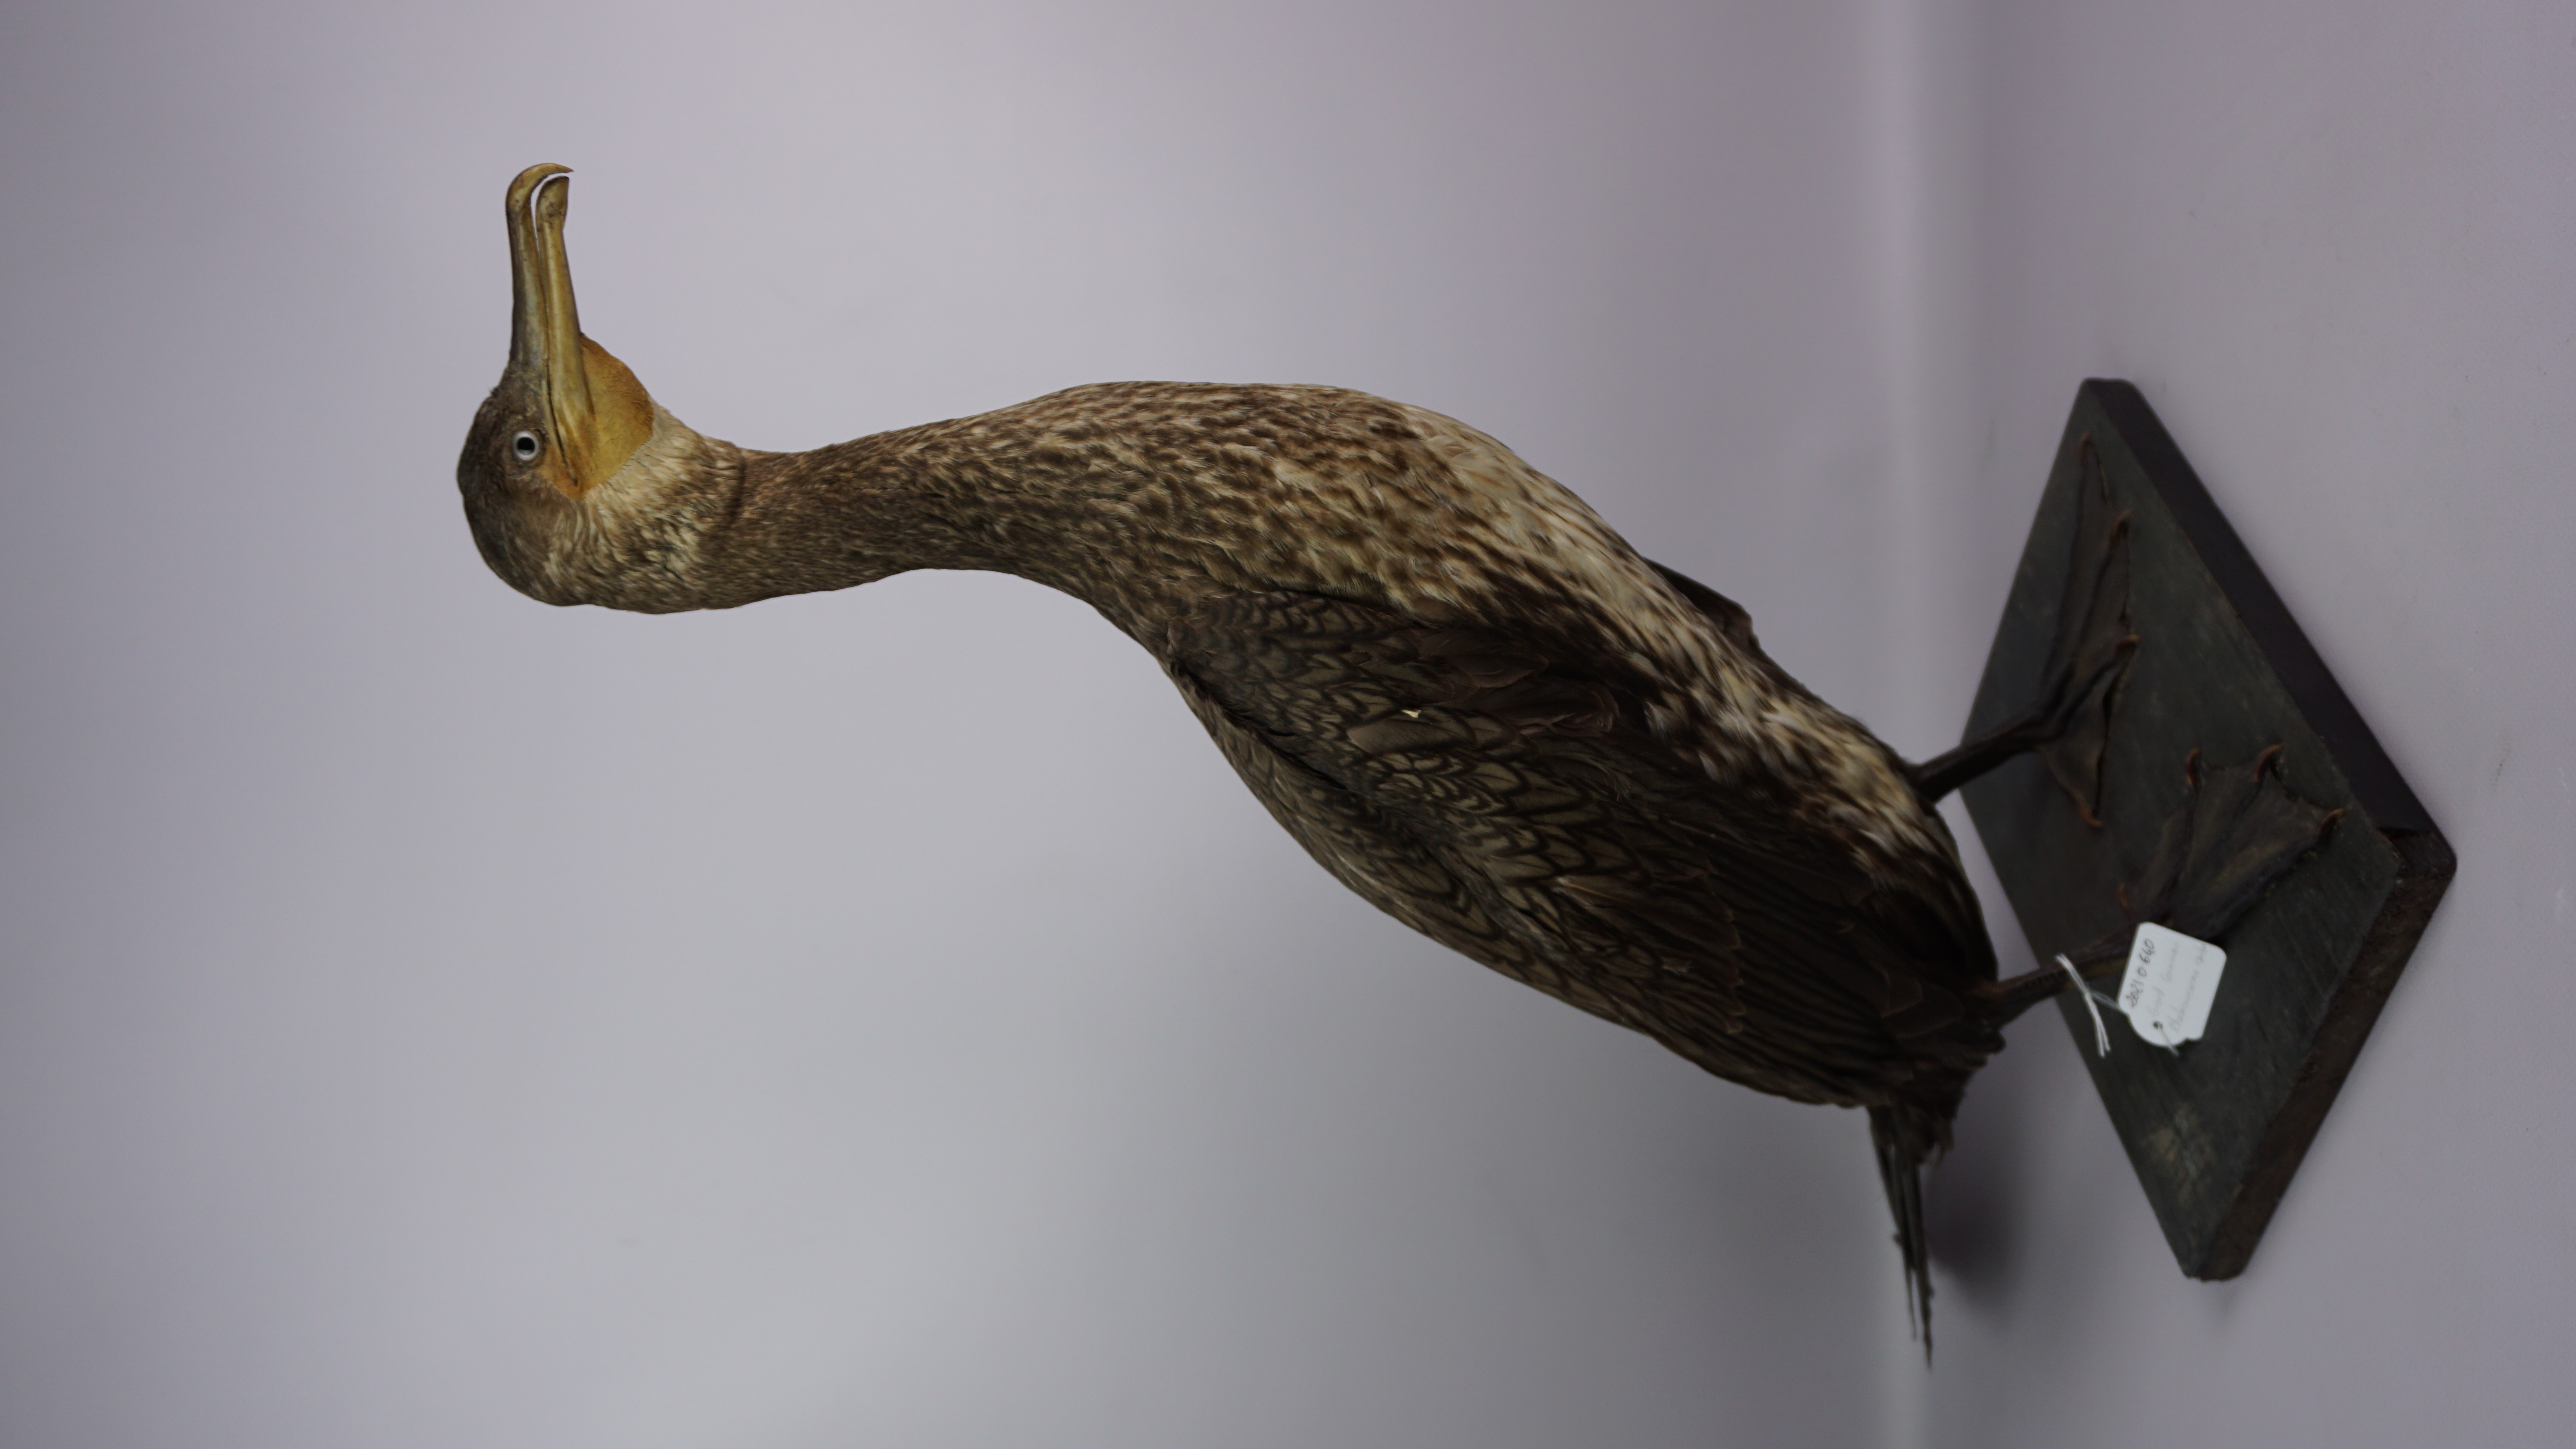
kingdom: Animalia
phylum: Chordata
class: Aves
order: Suliformes
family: Phalacrocoracidae
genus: Phalacrocorax
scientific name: Phalacrocorax carbo
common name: Great cormorant
